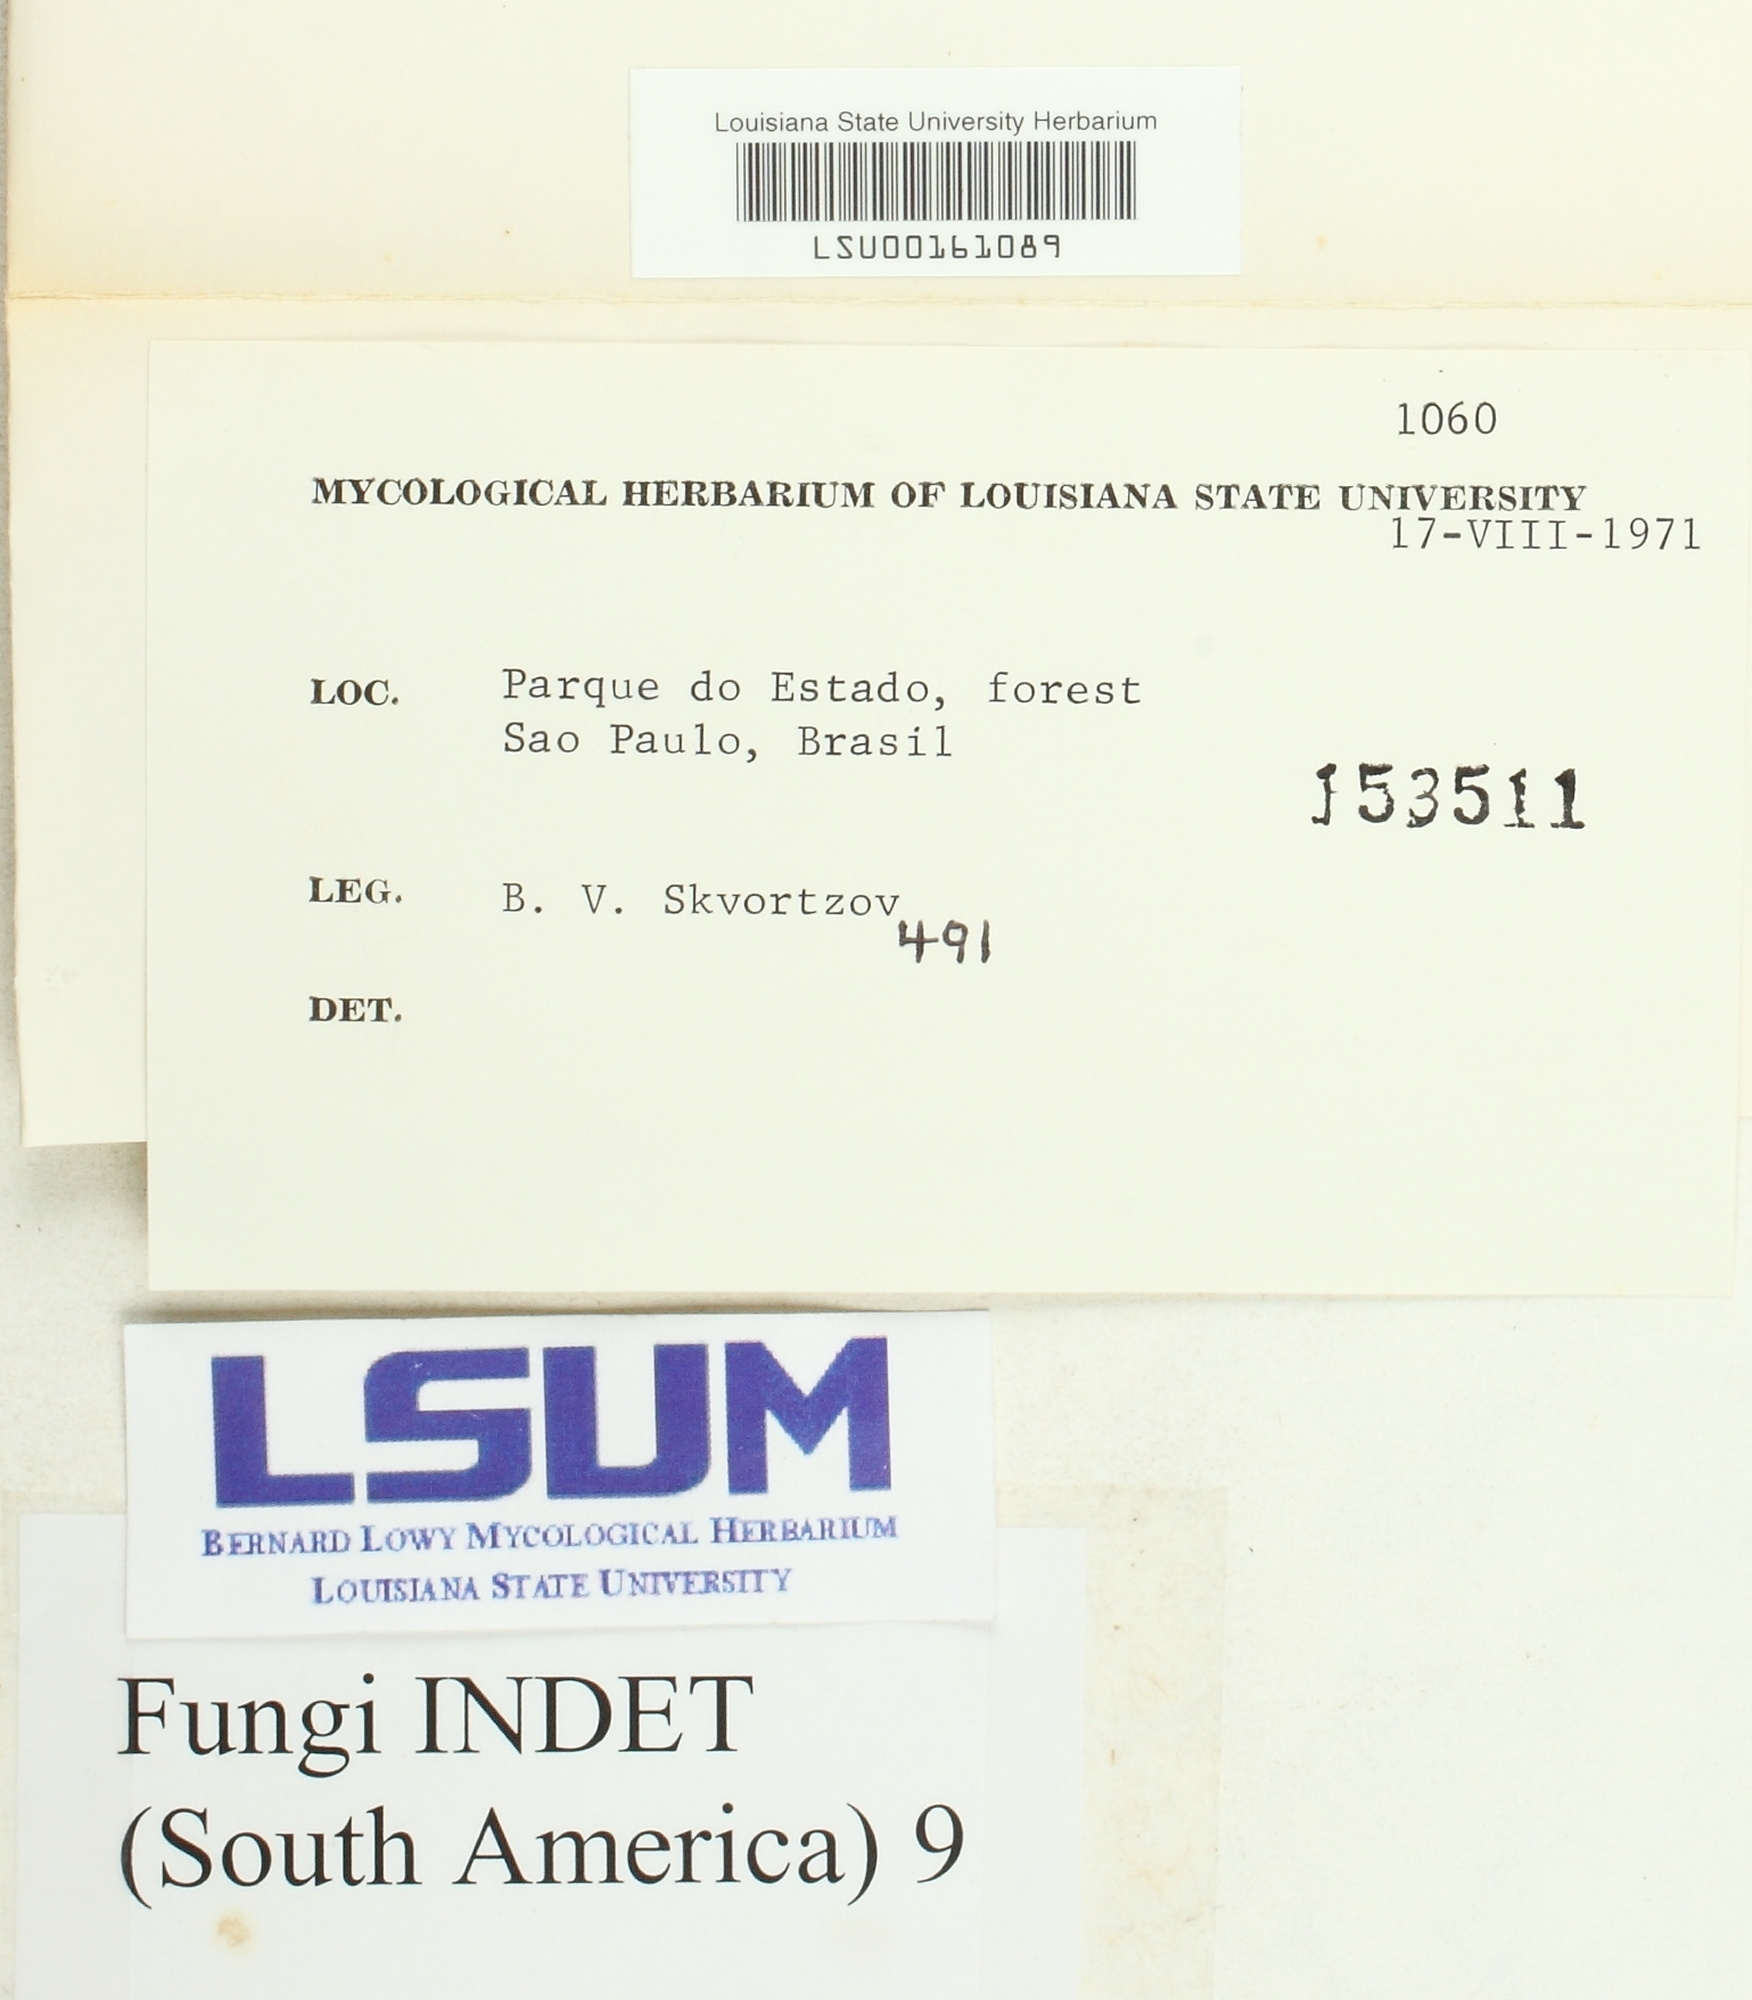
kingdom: Fungi
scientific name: Fungi
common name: Fungi
